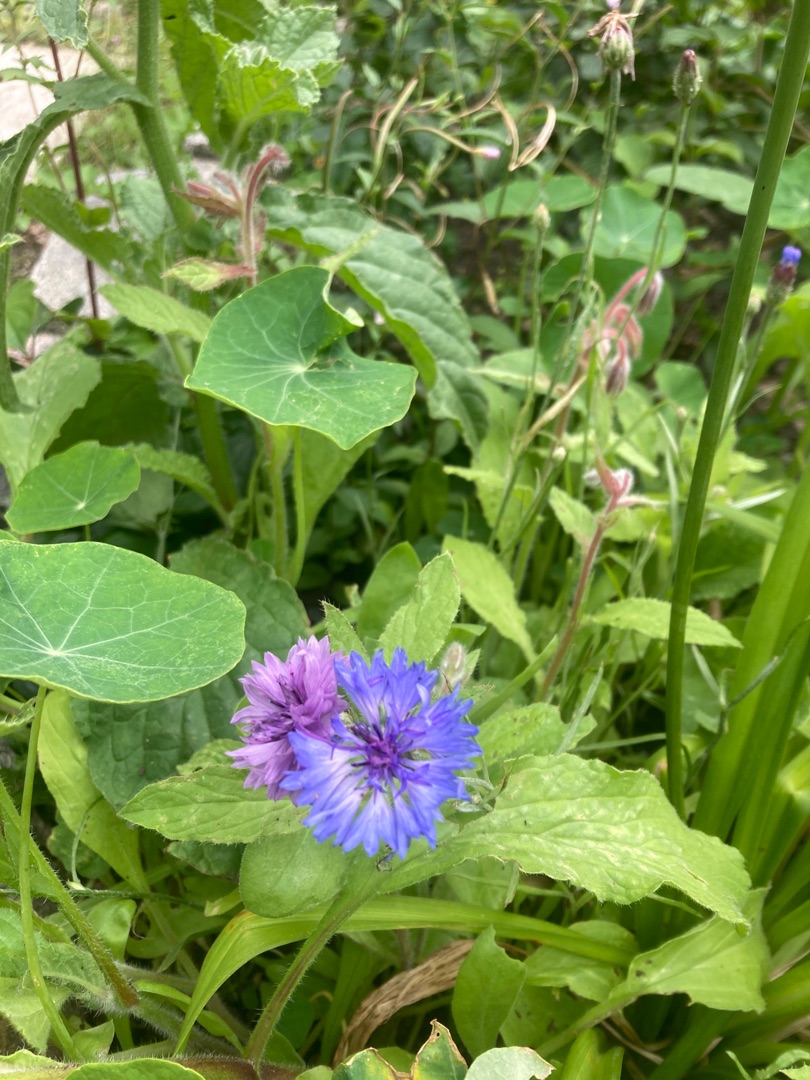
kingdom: Plantae
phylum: Tracheophyta
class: Magnoliopsida
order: Asterales
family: Asteraceae
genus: Centaurea
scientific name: Centaurea cyanus
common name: Kornblomst
